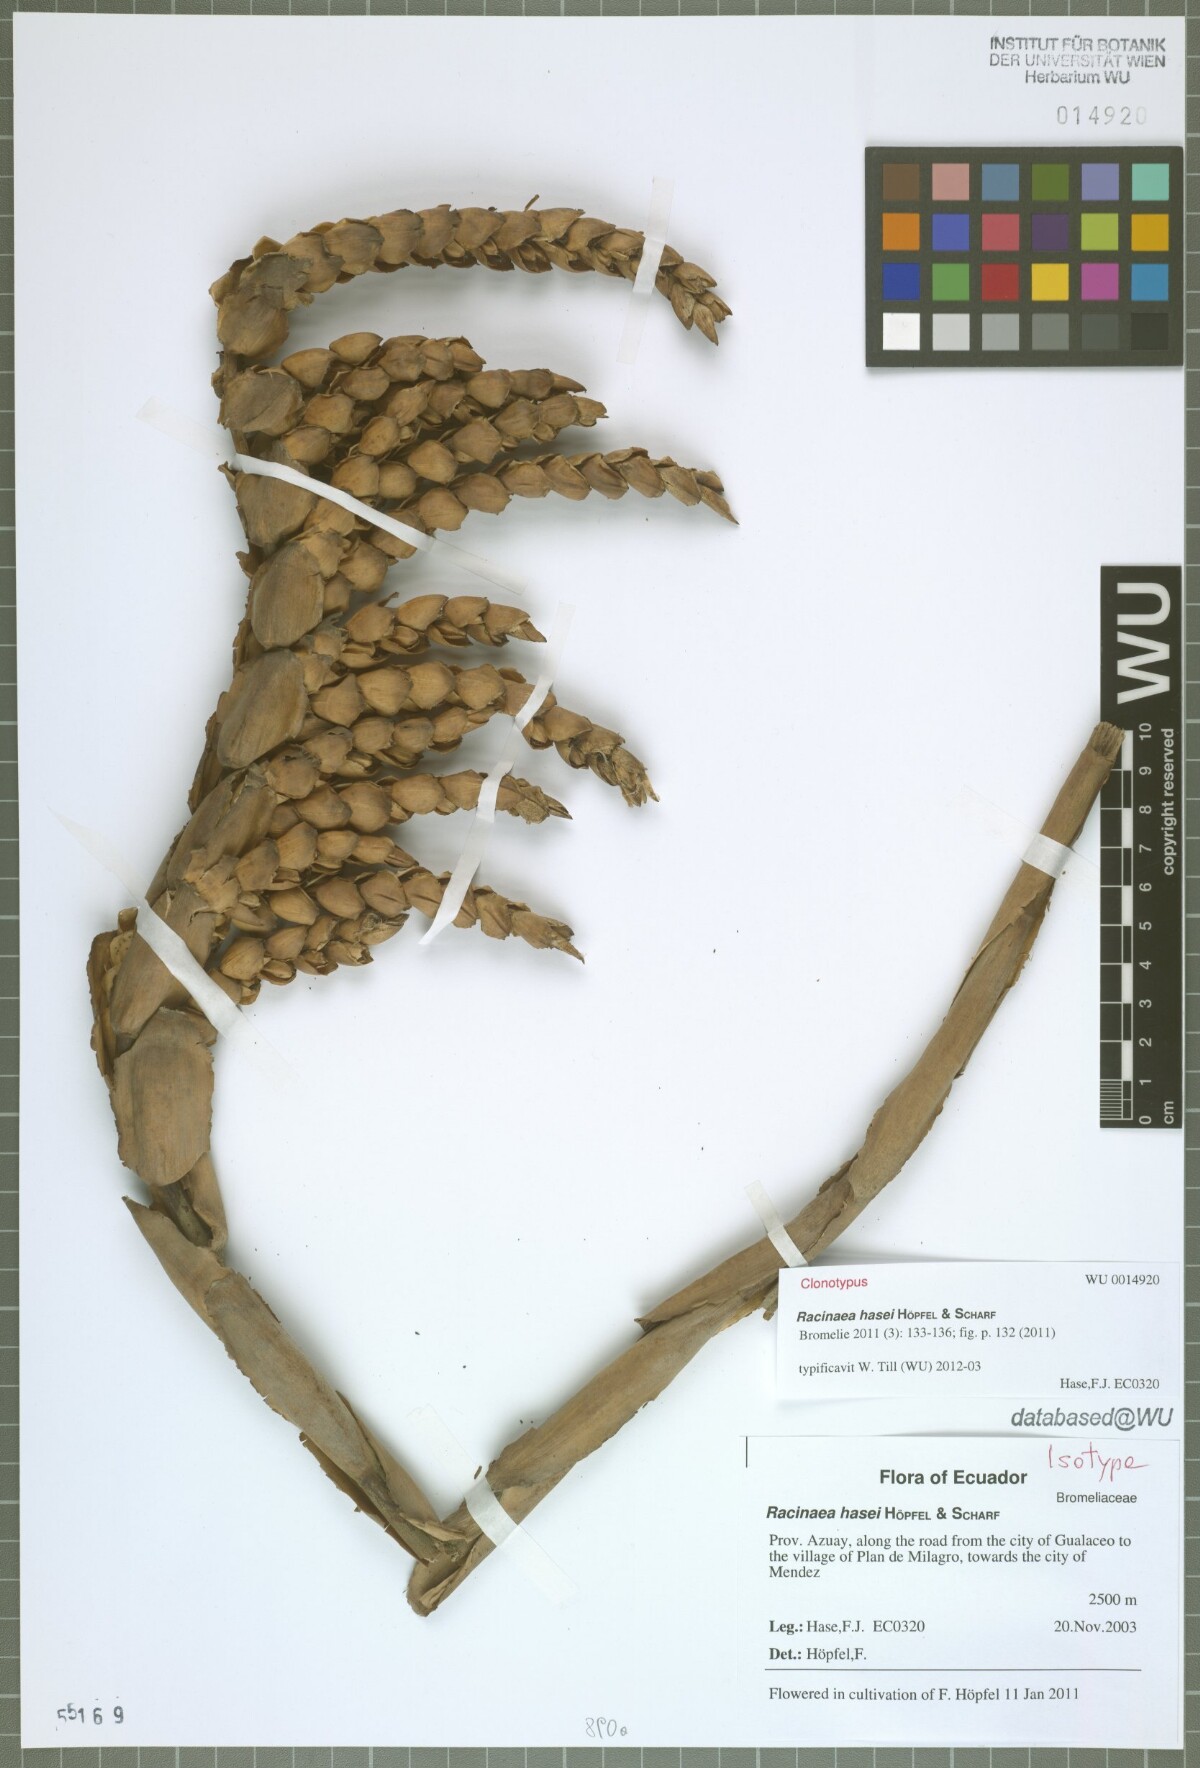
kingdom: Plantae
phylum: Tracheophyta
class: Liliopsida
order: Poales
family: Bromeliaceae
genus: Racinaea
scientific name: Racinaea hasei
